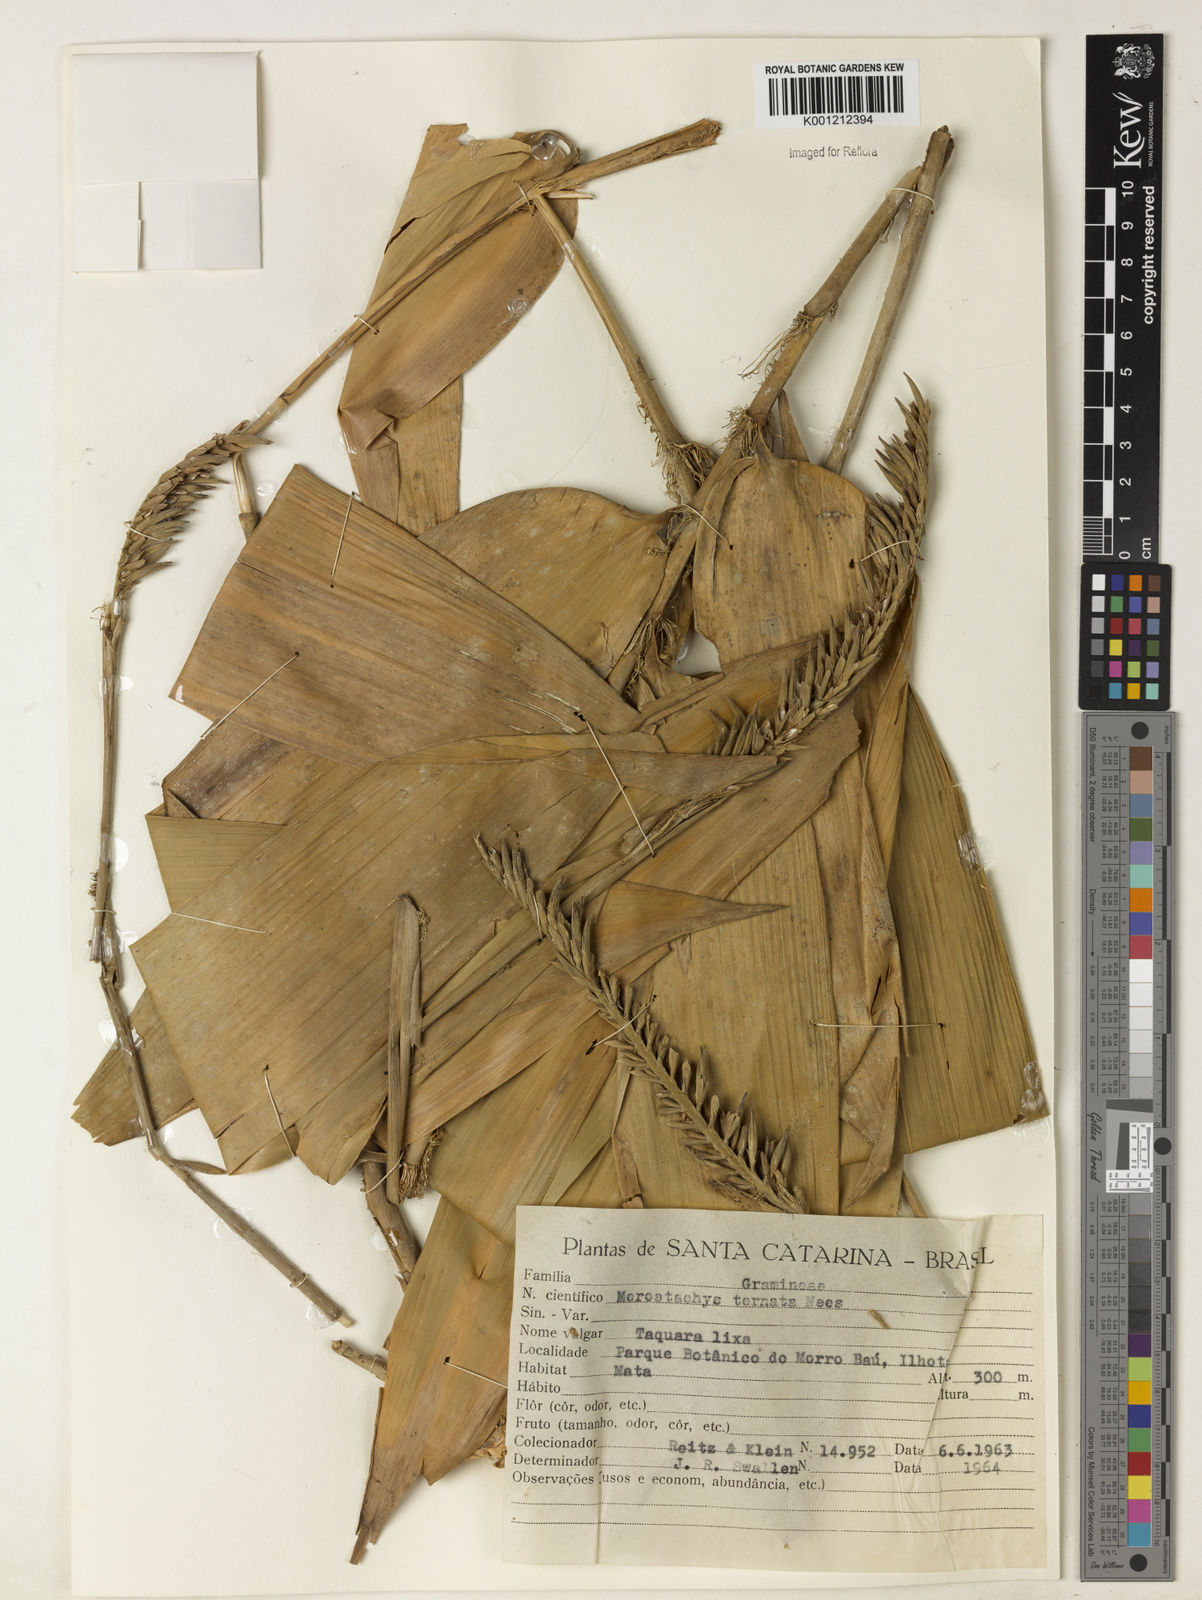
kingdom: Plantae
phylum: Tracheophyta
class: Liliopsida
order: Poales
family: Poaceae
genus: Merostachys
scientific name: Merostachys ternata
